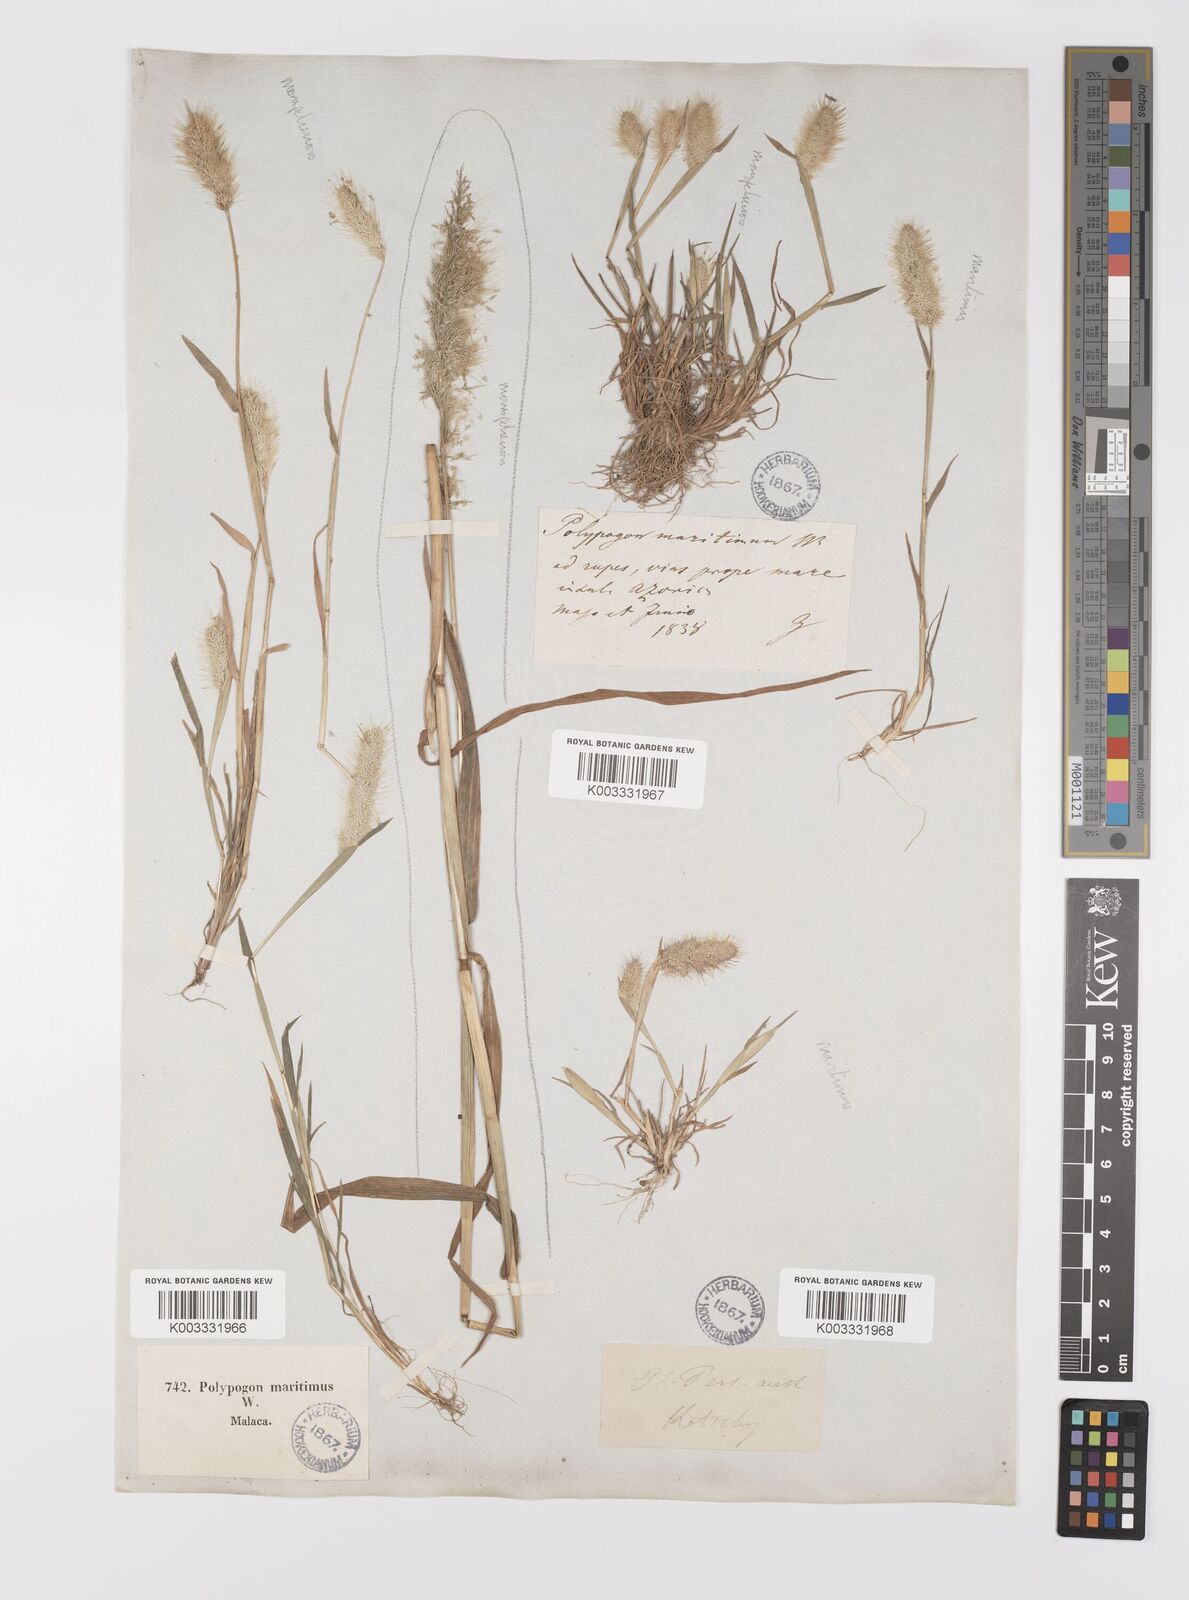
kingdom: Plantae
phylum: Tracheophyta
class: Liliopsida
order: Poales
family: Poaceae
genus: Polypogon
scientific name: Polypogon maritimus
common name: Mediterranean rabbitsfoot grass
